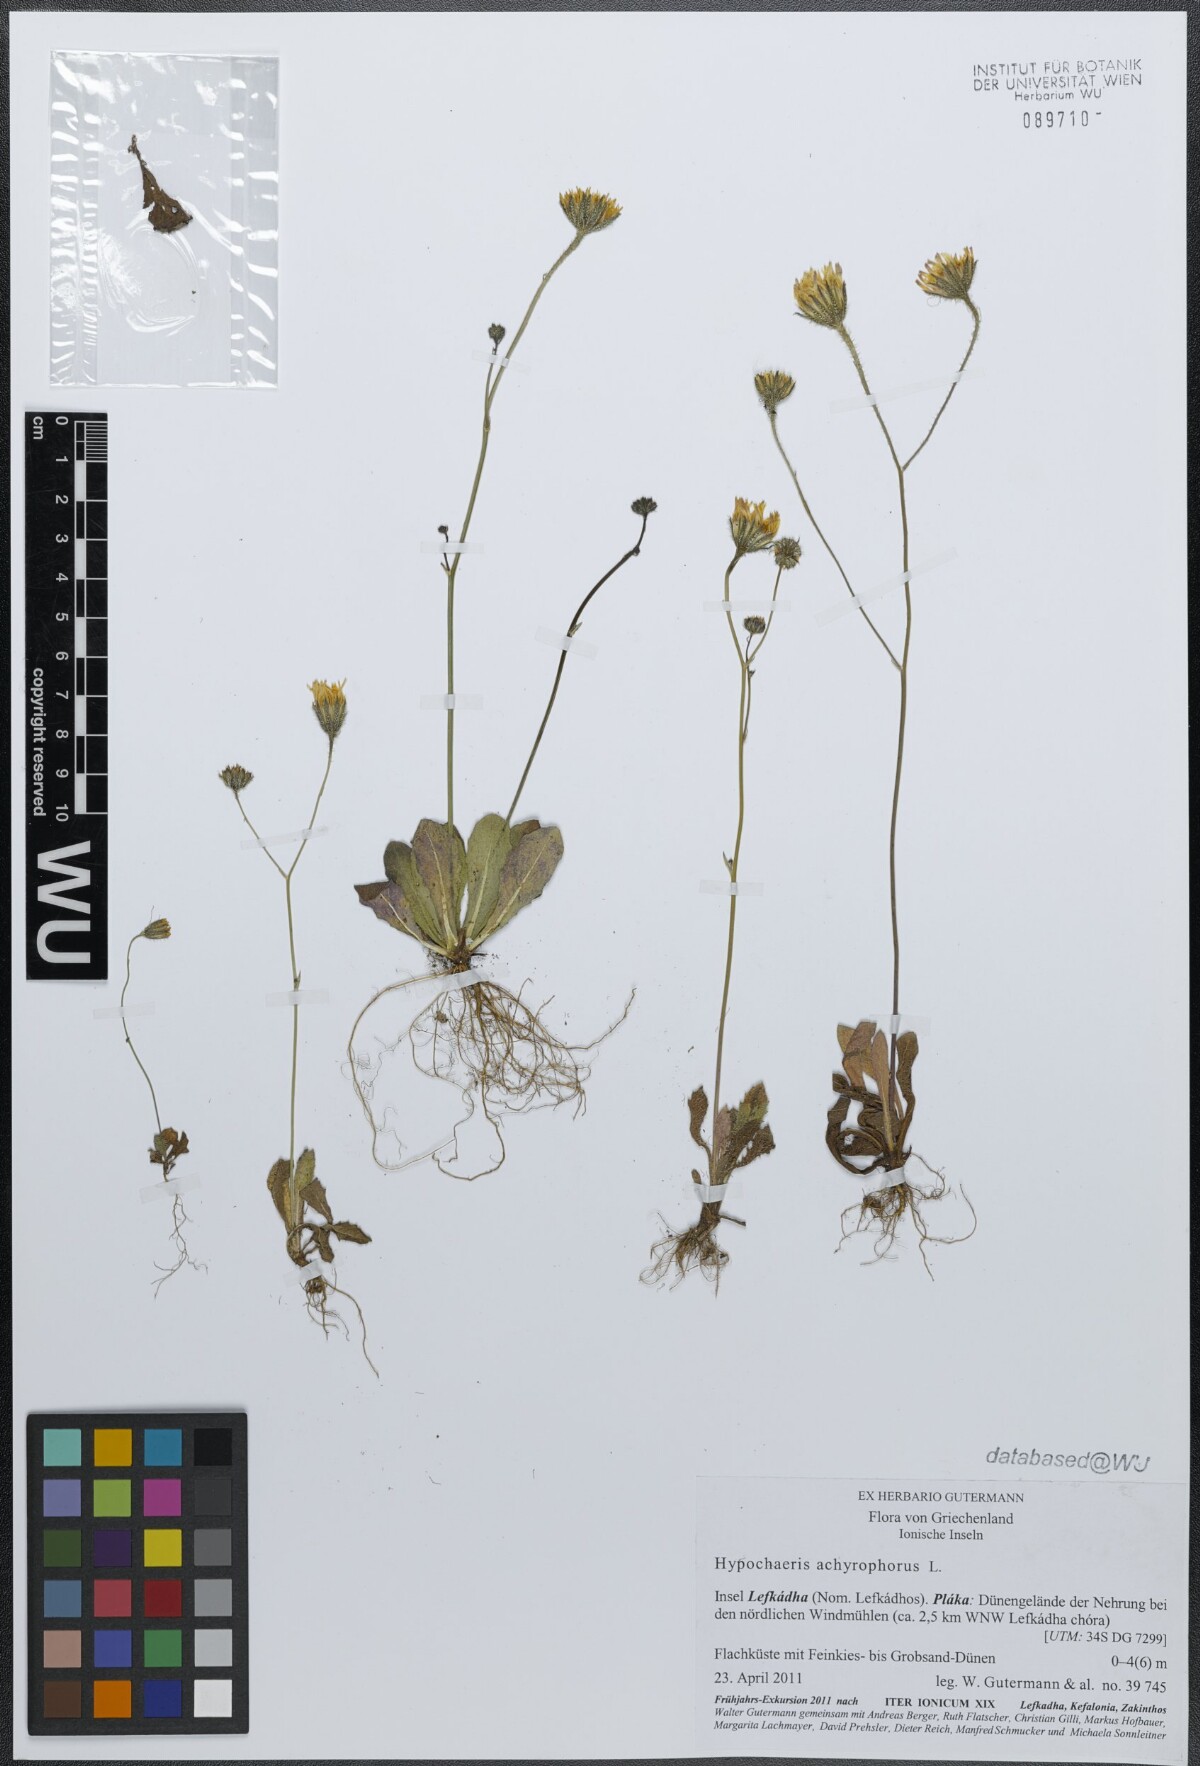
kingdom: Plantae
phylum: Tracheophyta
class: Magnoliopsida
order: Asterales
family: Asteraceae
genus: Achyrophorus
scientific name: Achyrophorus valdesii
